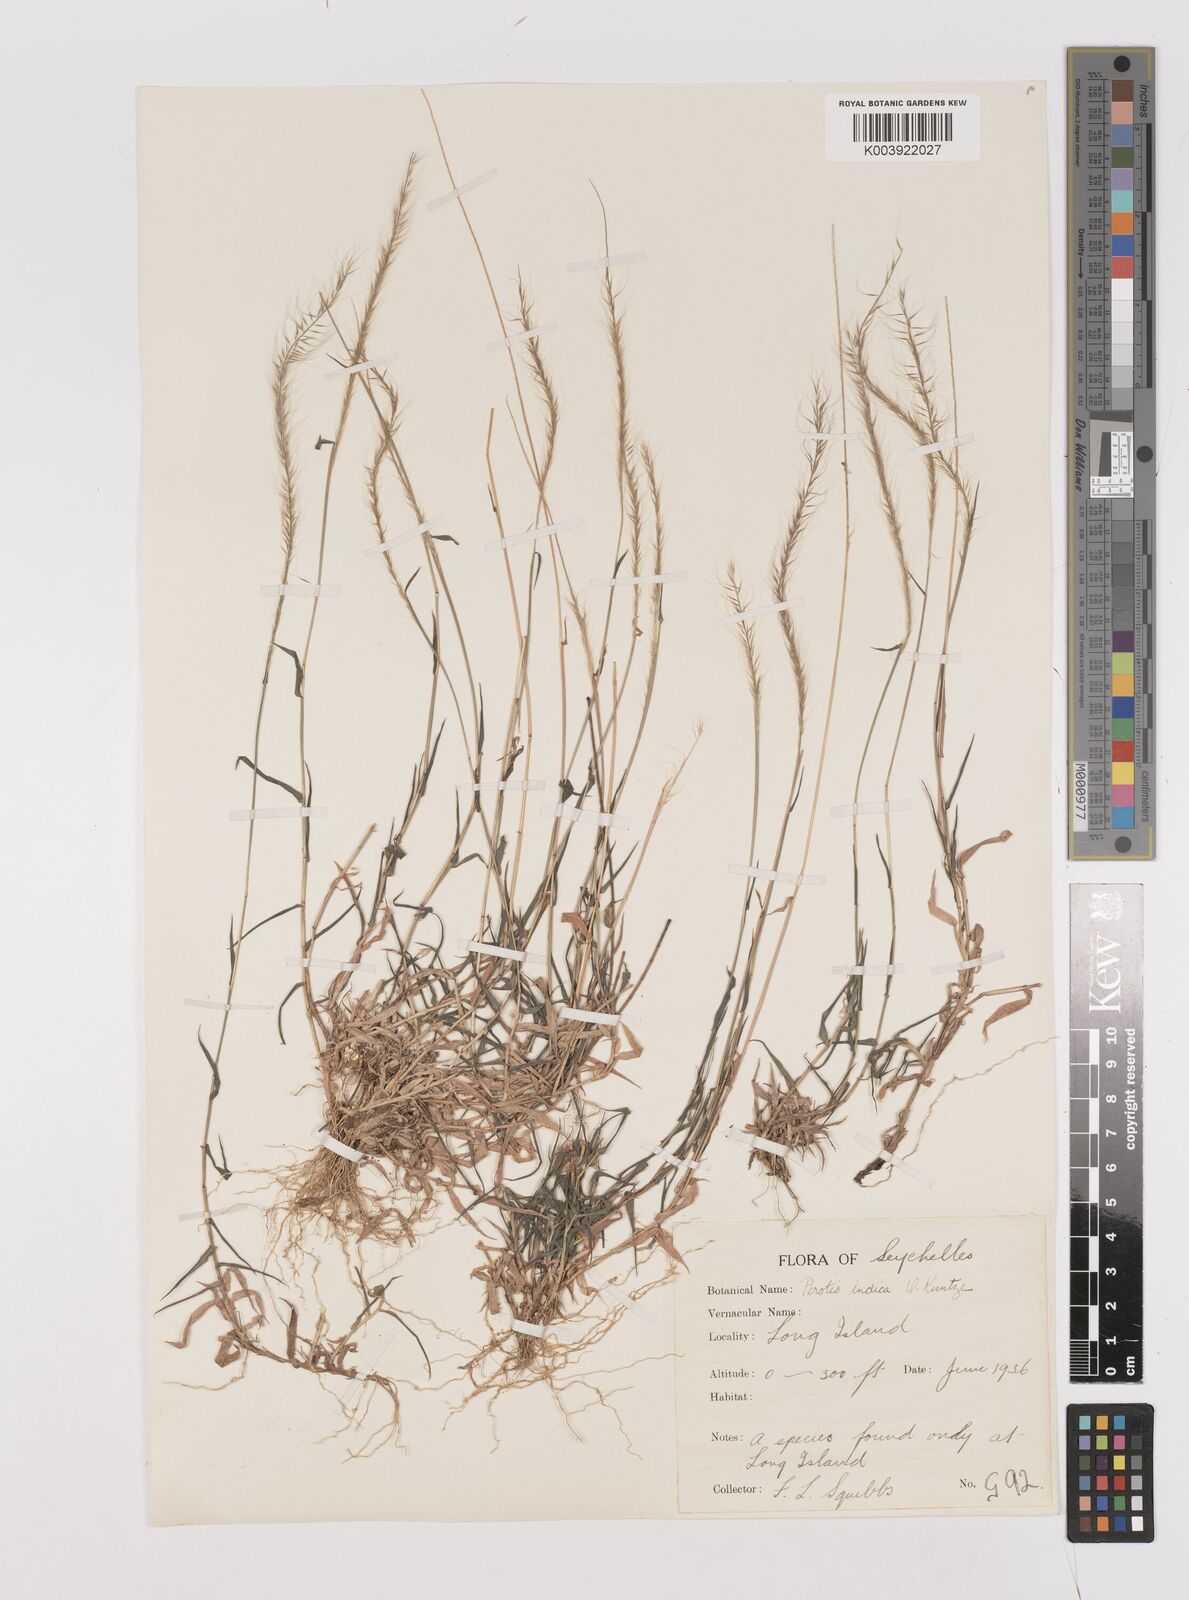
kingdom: Plantae
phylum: Tracheophyta
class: Liliopsida
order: Poales
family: Poaceae
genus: Perotis
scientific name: Perotis hildebrandtii
